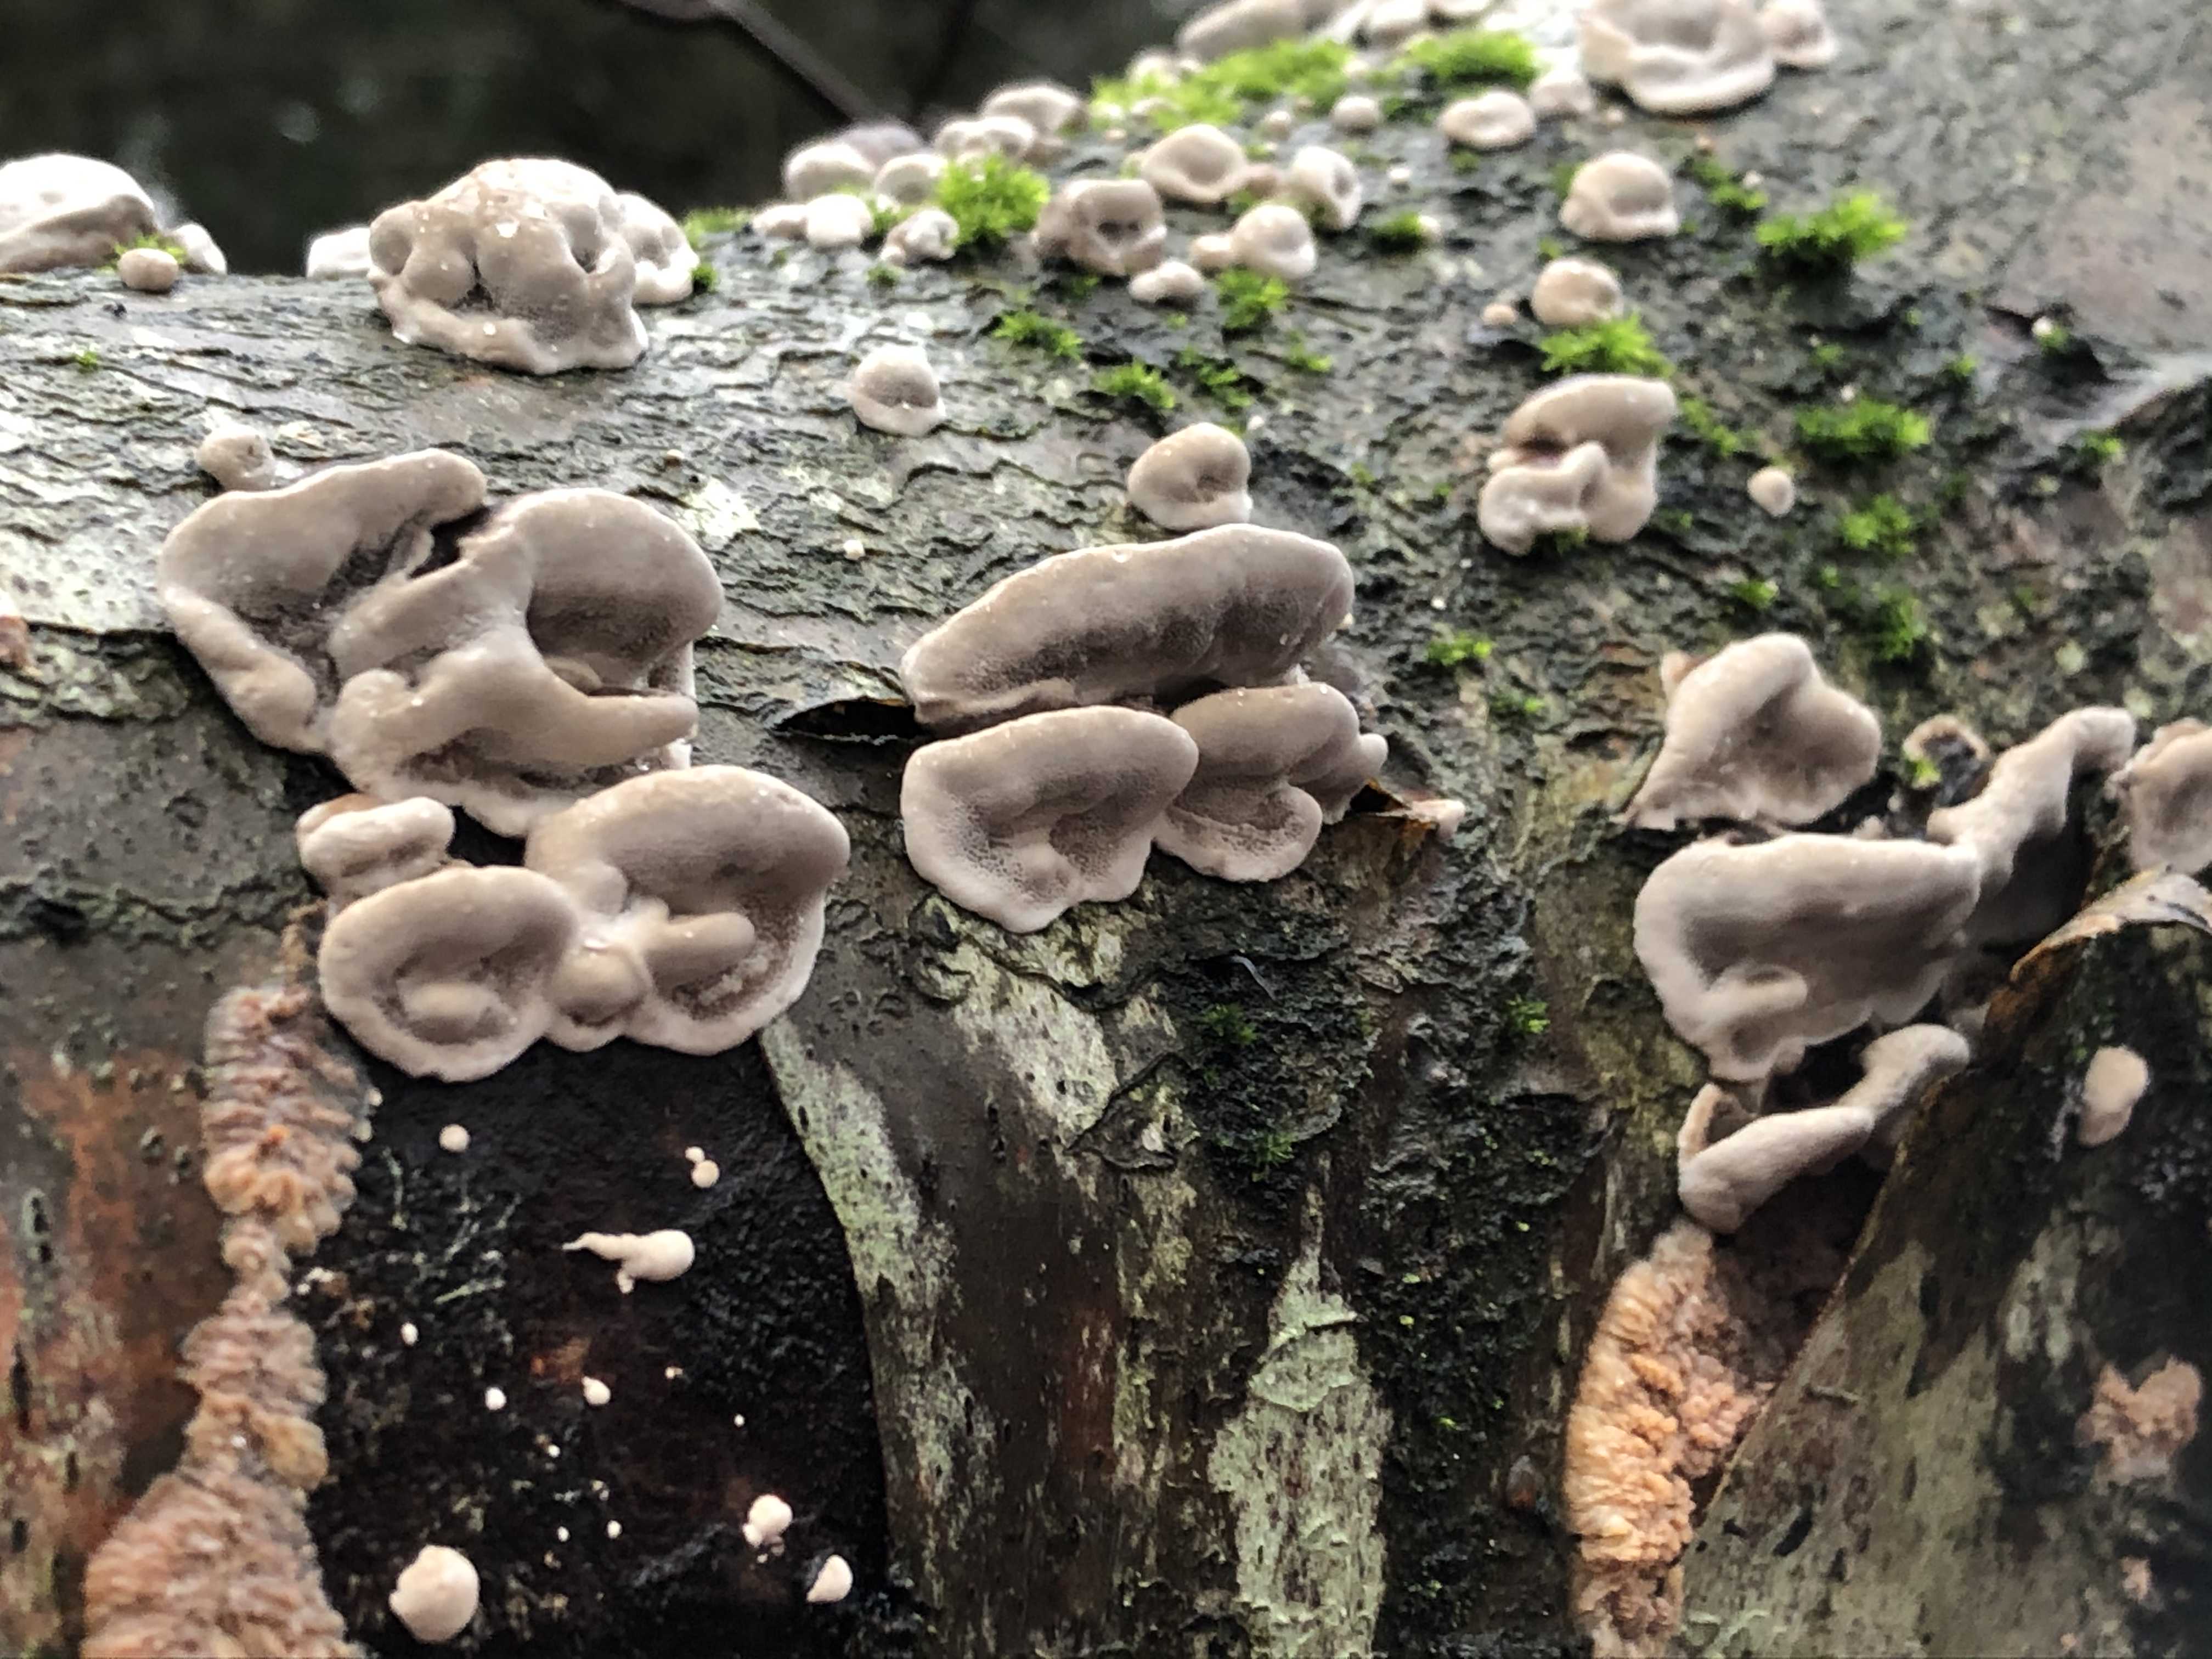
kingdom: Fungi
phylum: Basidiomycota
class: Agaricomycetes
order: Polyporales
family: Phanerochaetaceae
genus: Bjerkandera
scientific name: Bjerkandera adusta
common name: sveden sodporesvamp
